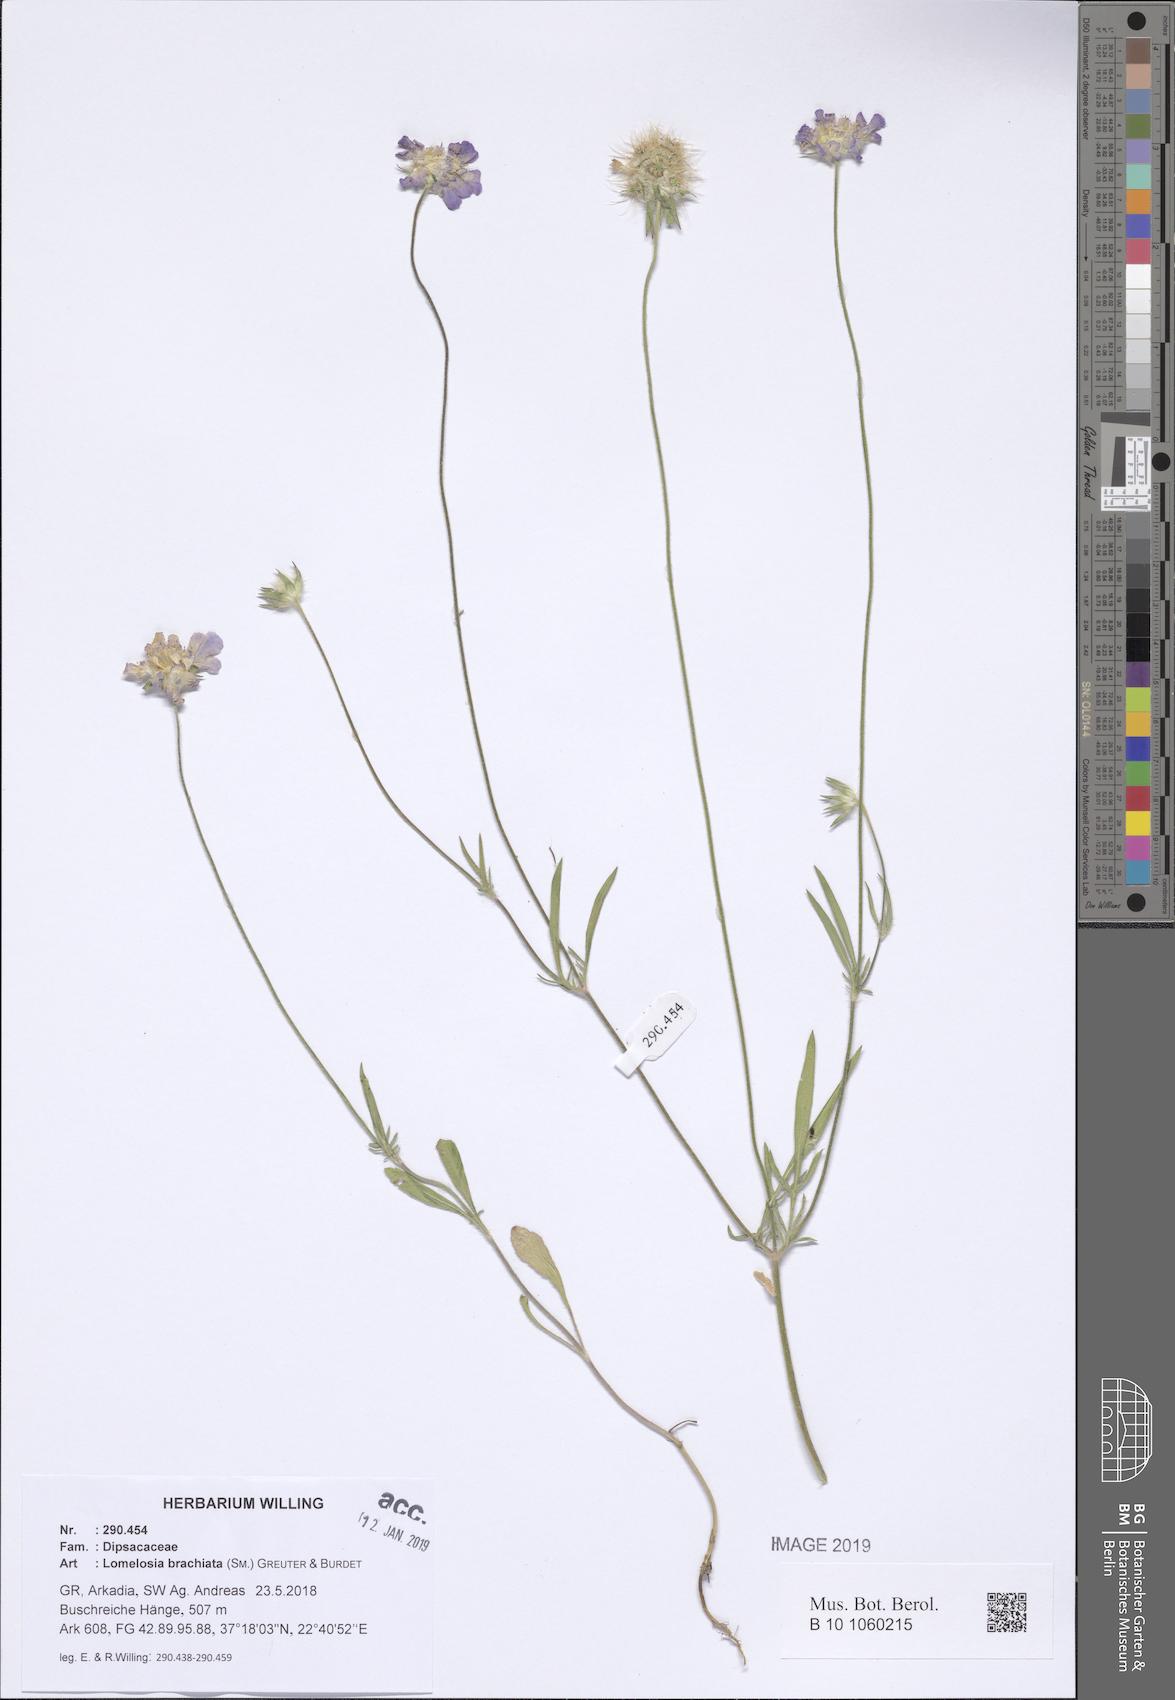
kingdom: Plantae
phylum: Tracheophyta
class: Magnoliopsida
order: Dipsacales
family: Caprifoliaceae
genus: Lomelosia
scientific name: Lomelosia brachiata
